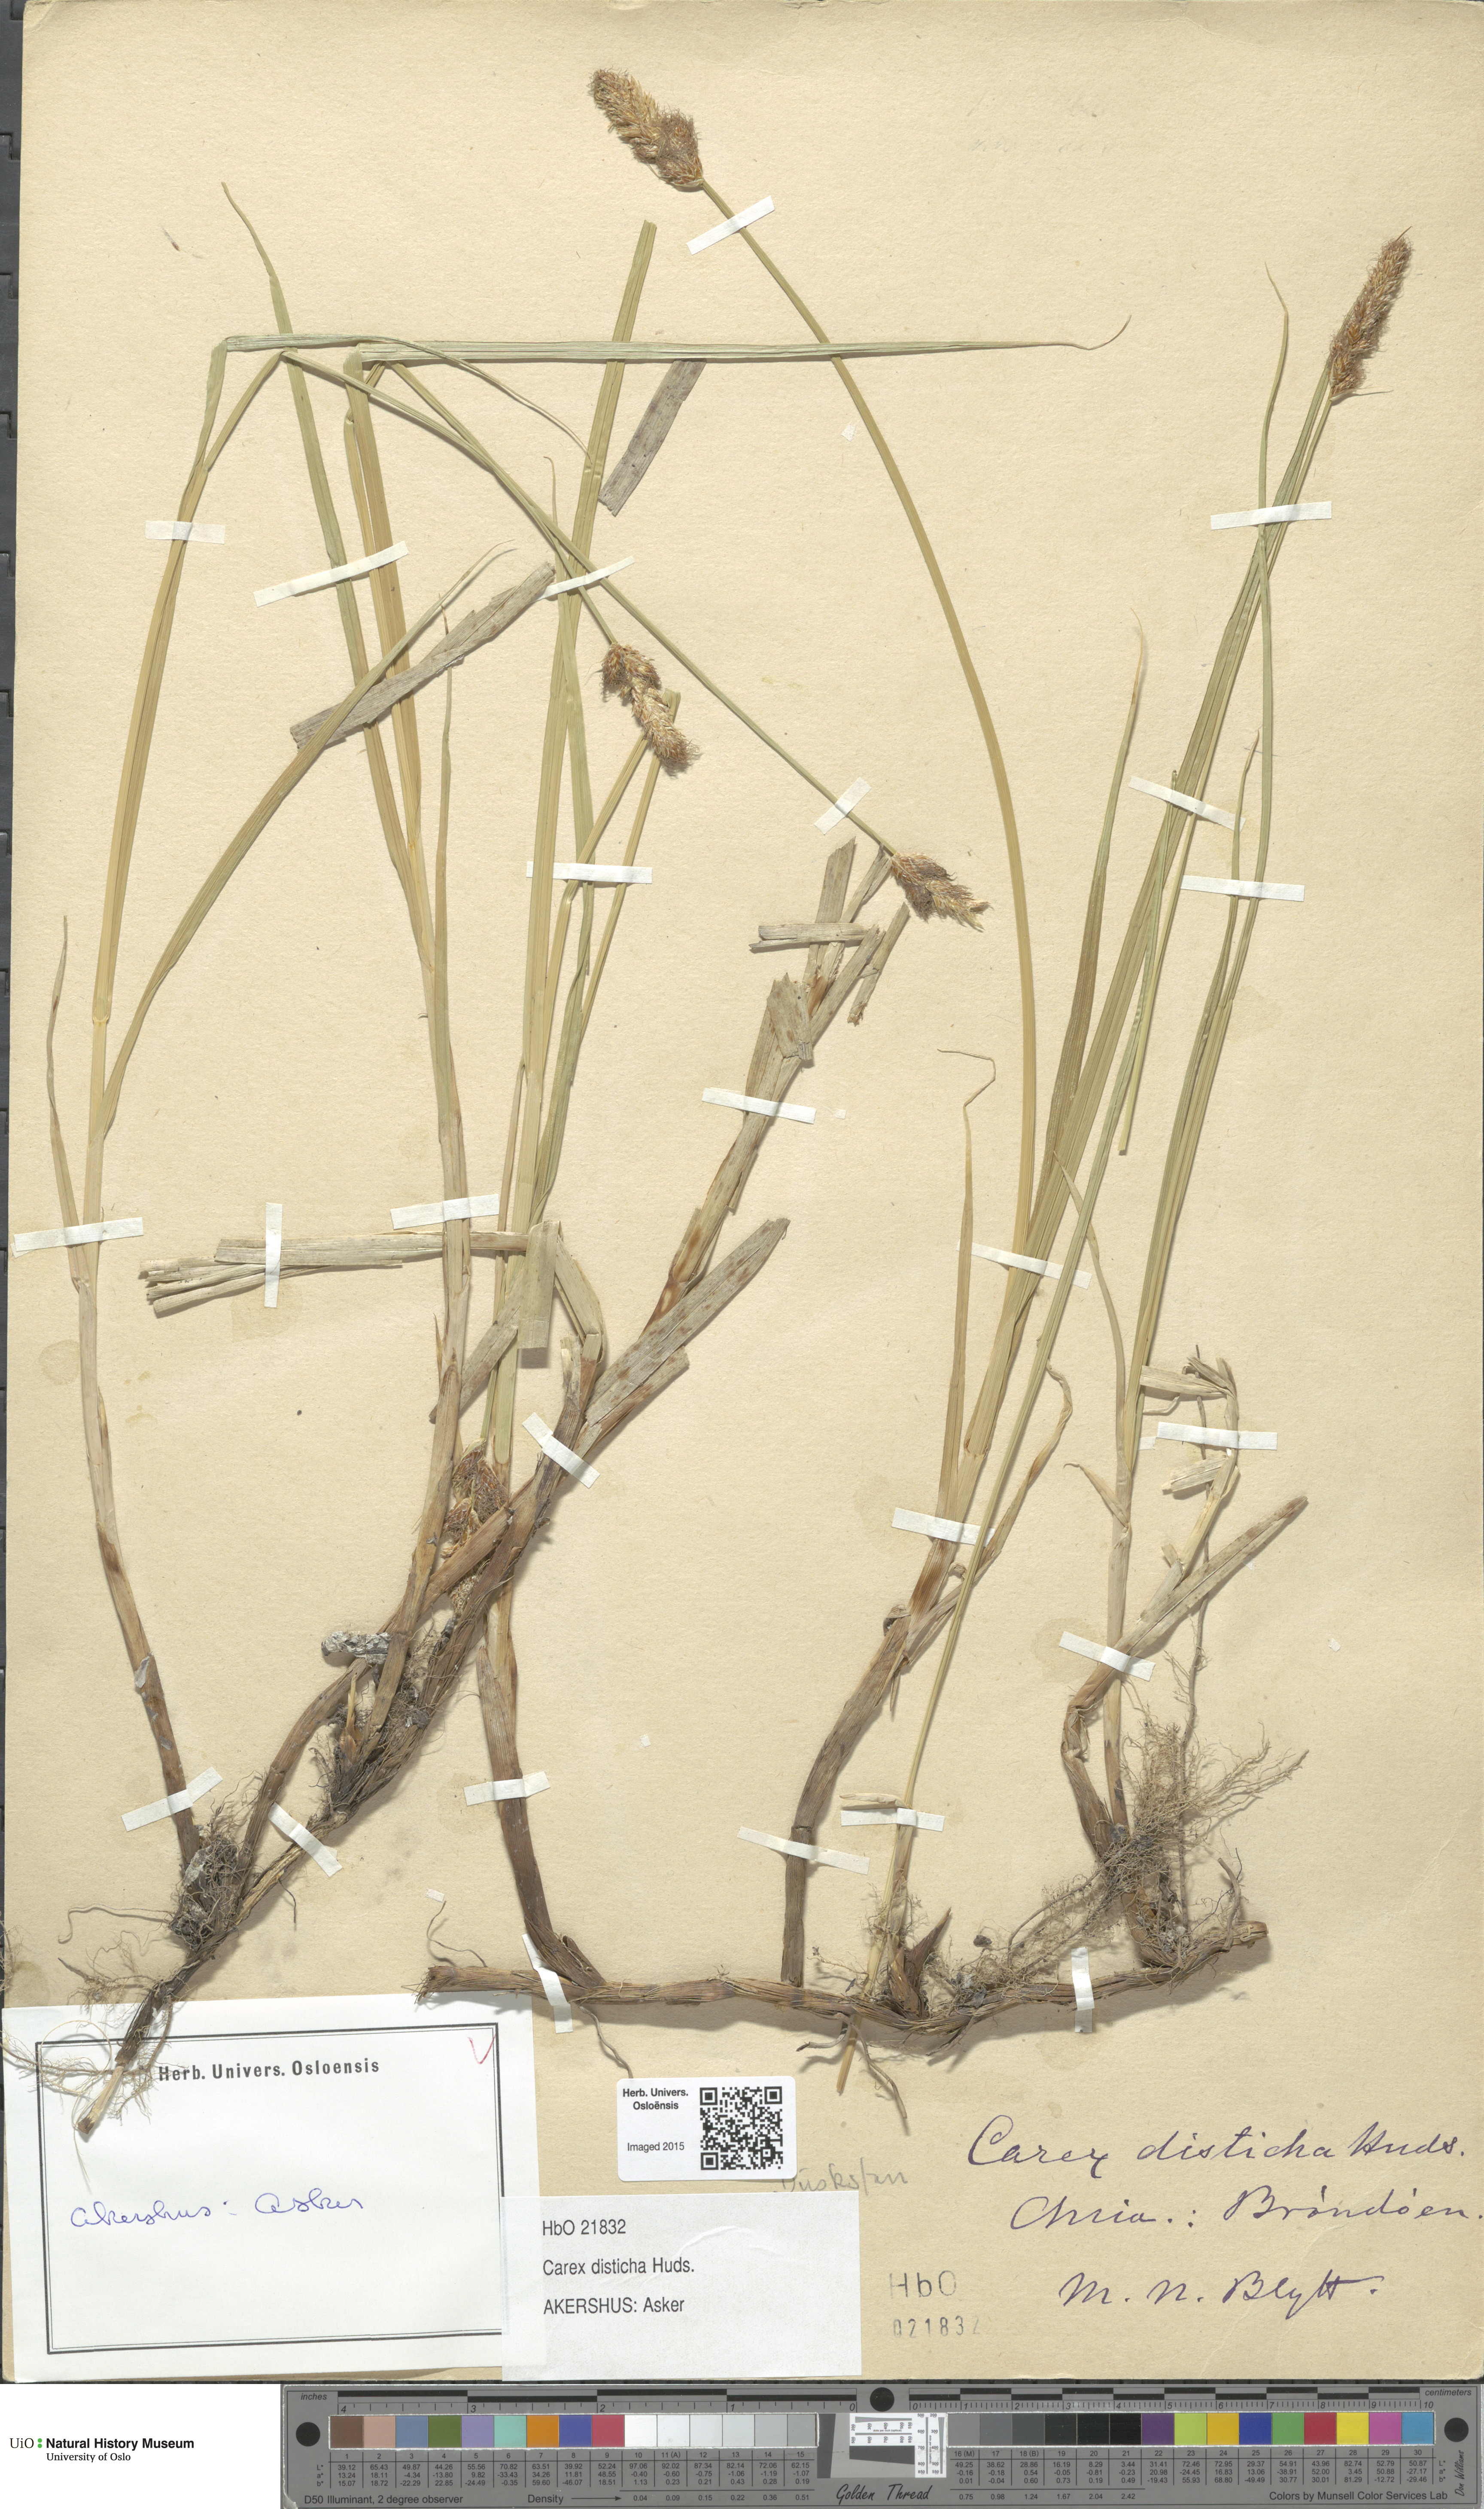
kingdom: Plantae
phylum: Tracheophyta
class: Liliopsida
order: Poales
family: Cyperaceae
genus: Carex
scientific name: Carex disticha
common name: Brown sedge
